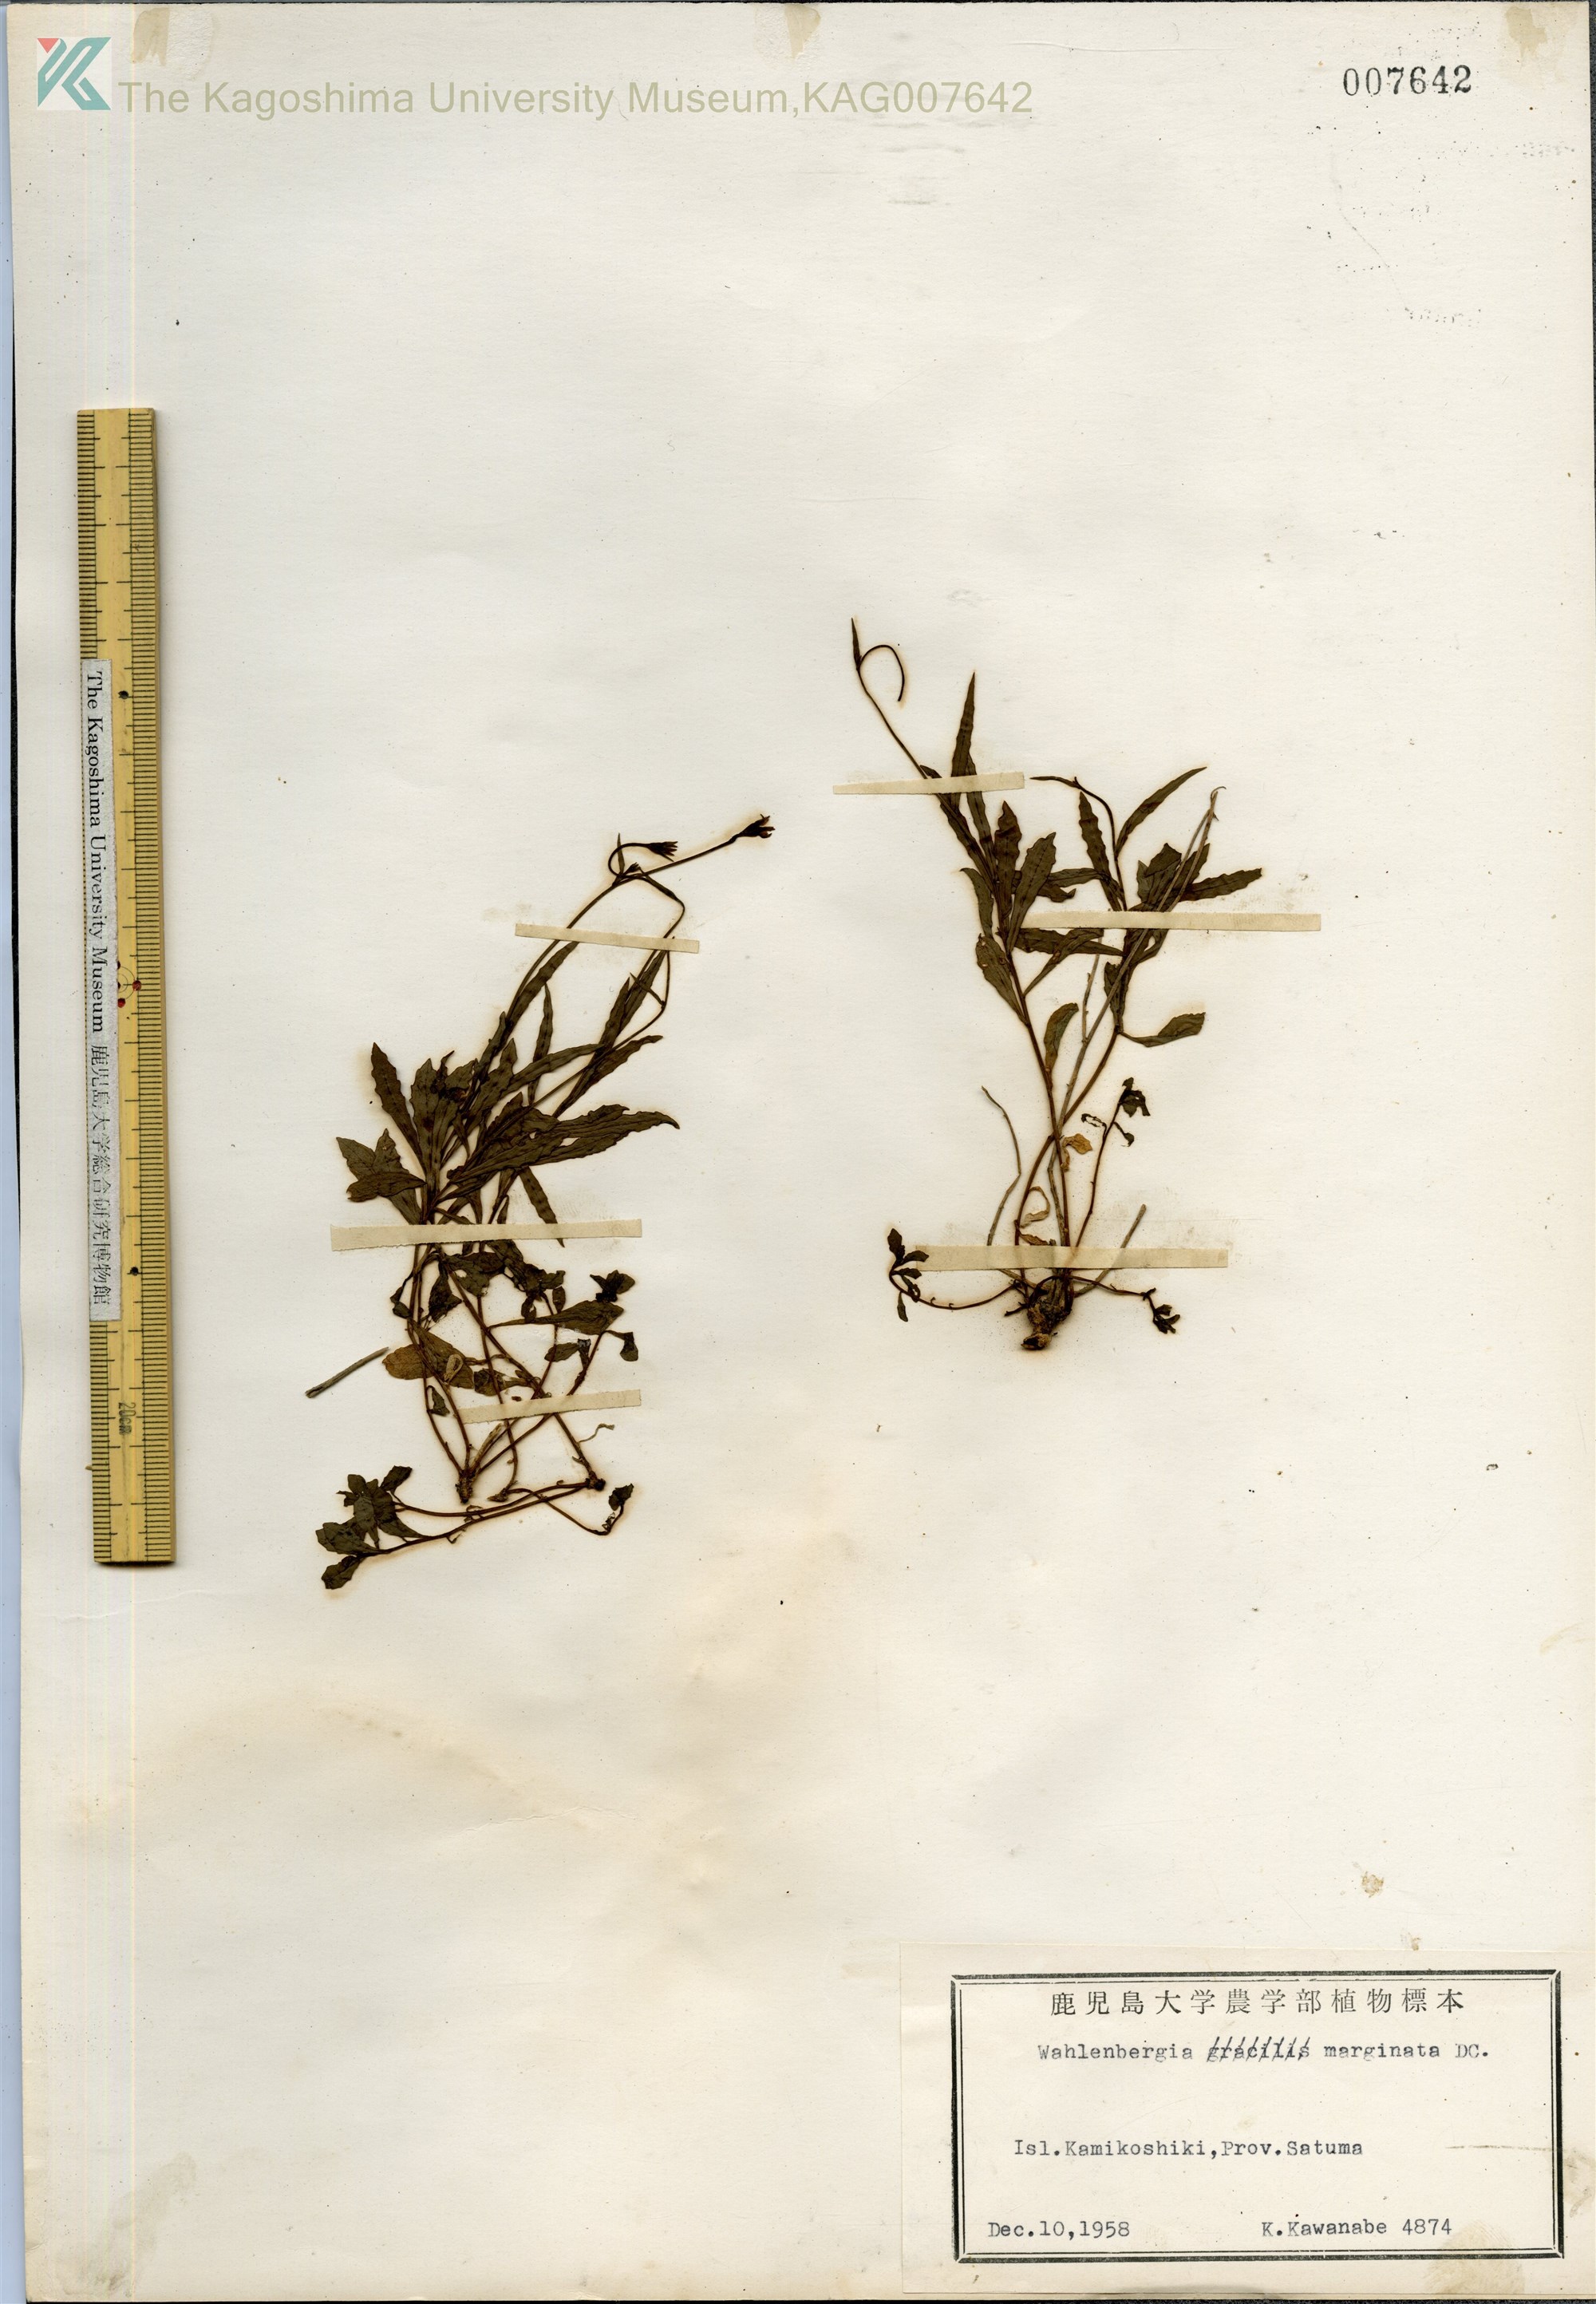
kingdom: Plantae
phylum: Tracheophyta
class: Magnoliopsida
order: Asterales
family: Campanulaceae
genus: Wahlenbergia
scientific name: Wahlenbergia marginata
